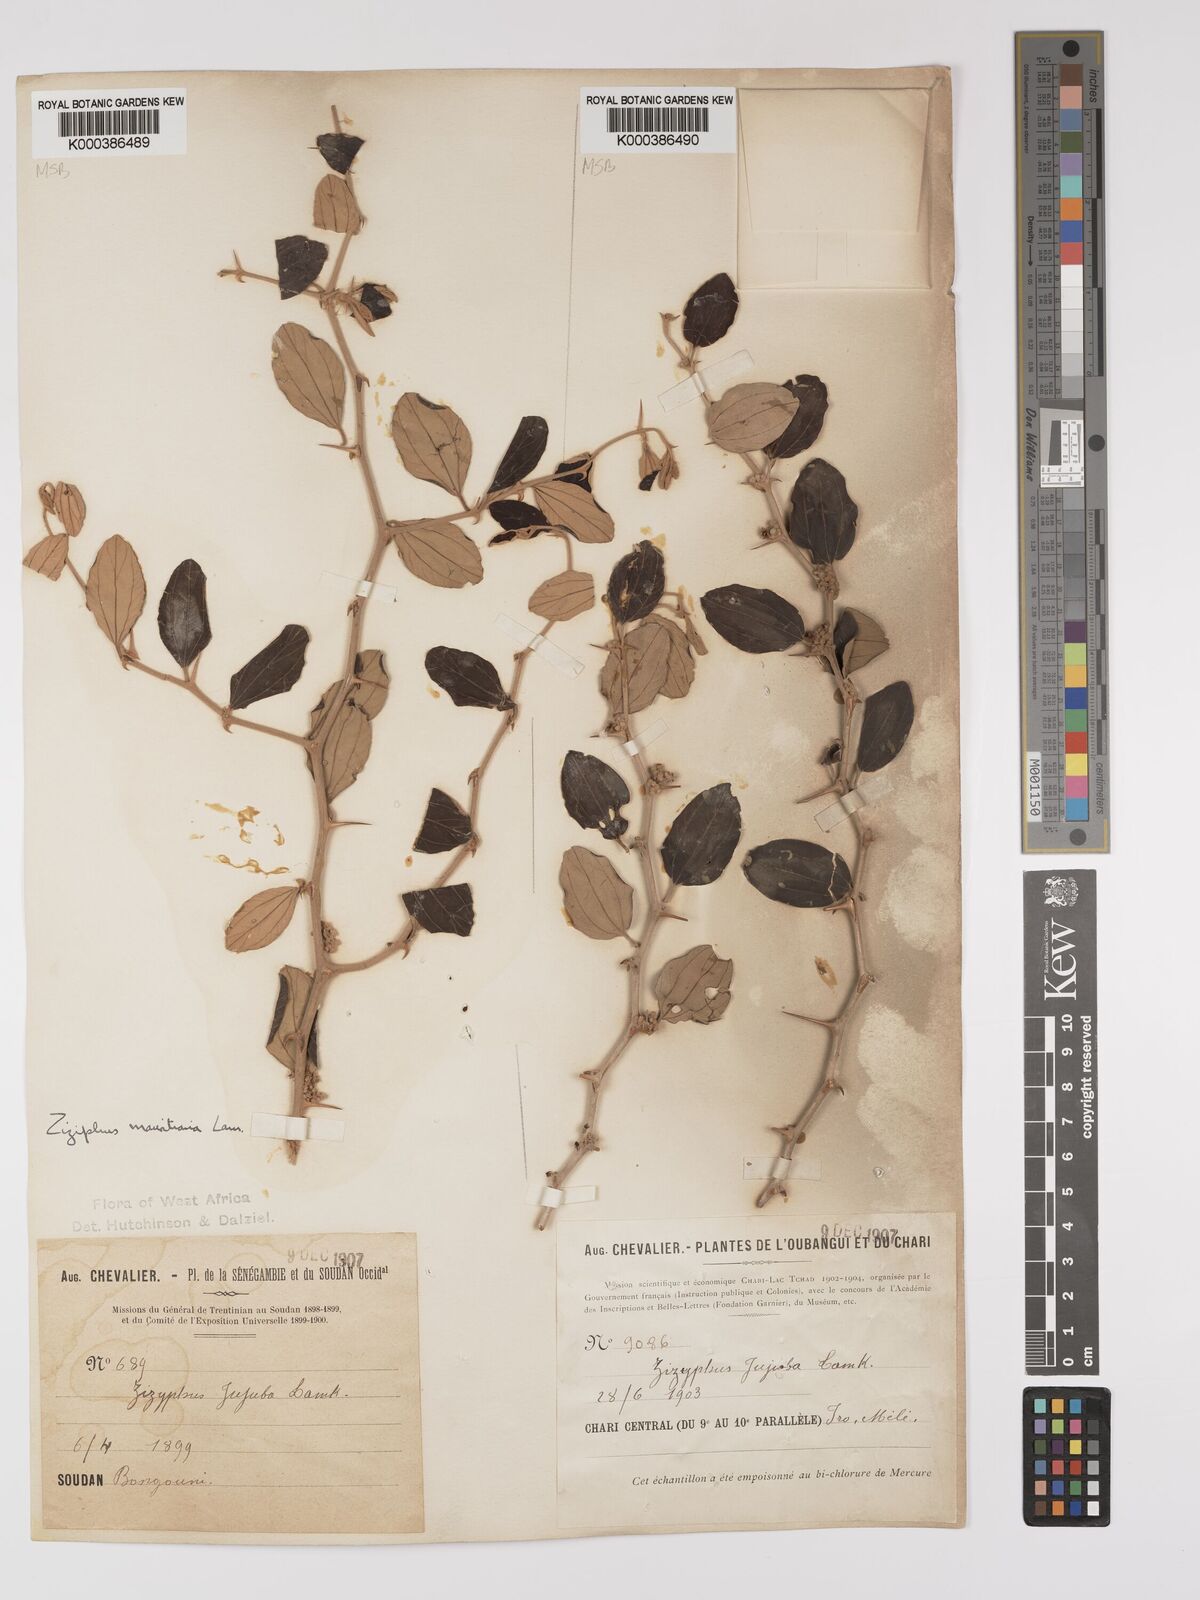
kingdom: Plantae
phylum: Tracheophyta
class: Magnoliopsida
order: Rosales
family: Rhamnaceae
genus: Ziziphus
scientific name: Ziziphus mauritiana
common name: Indian jujube
